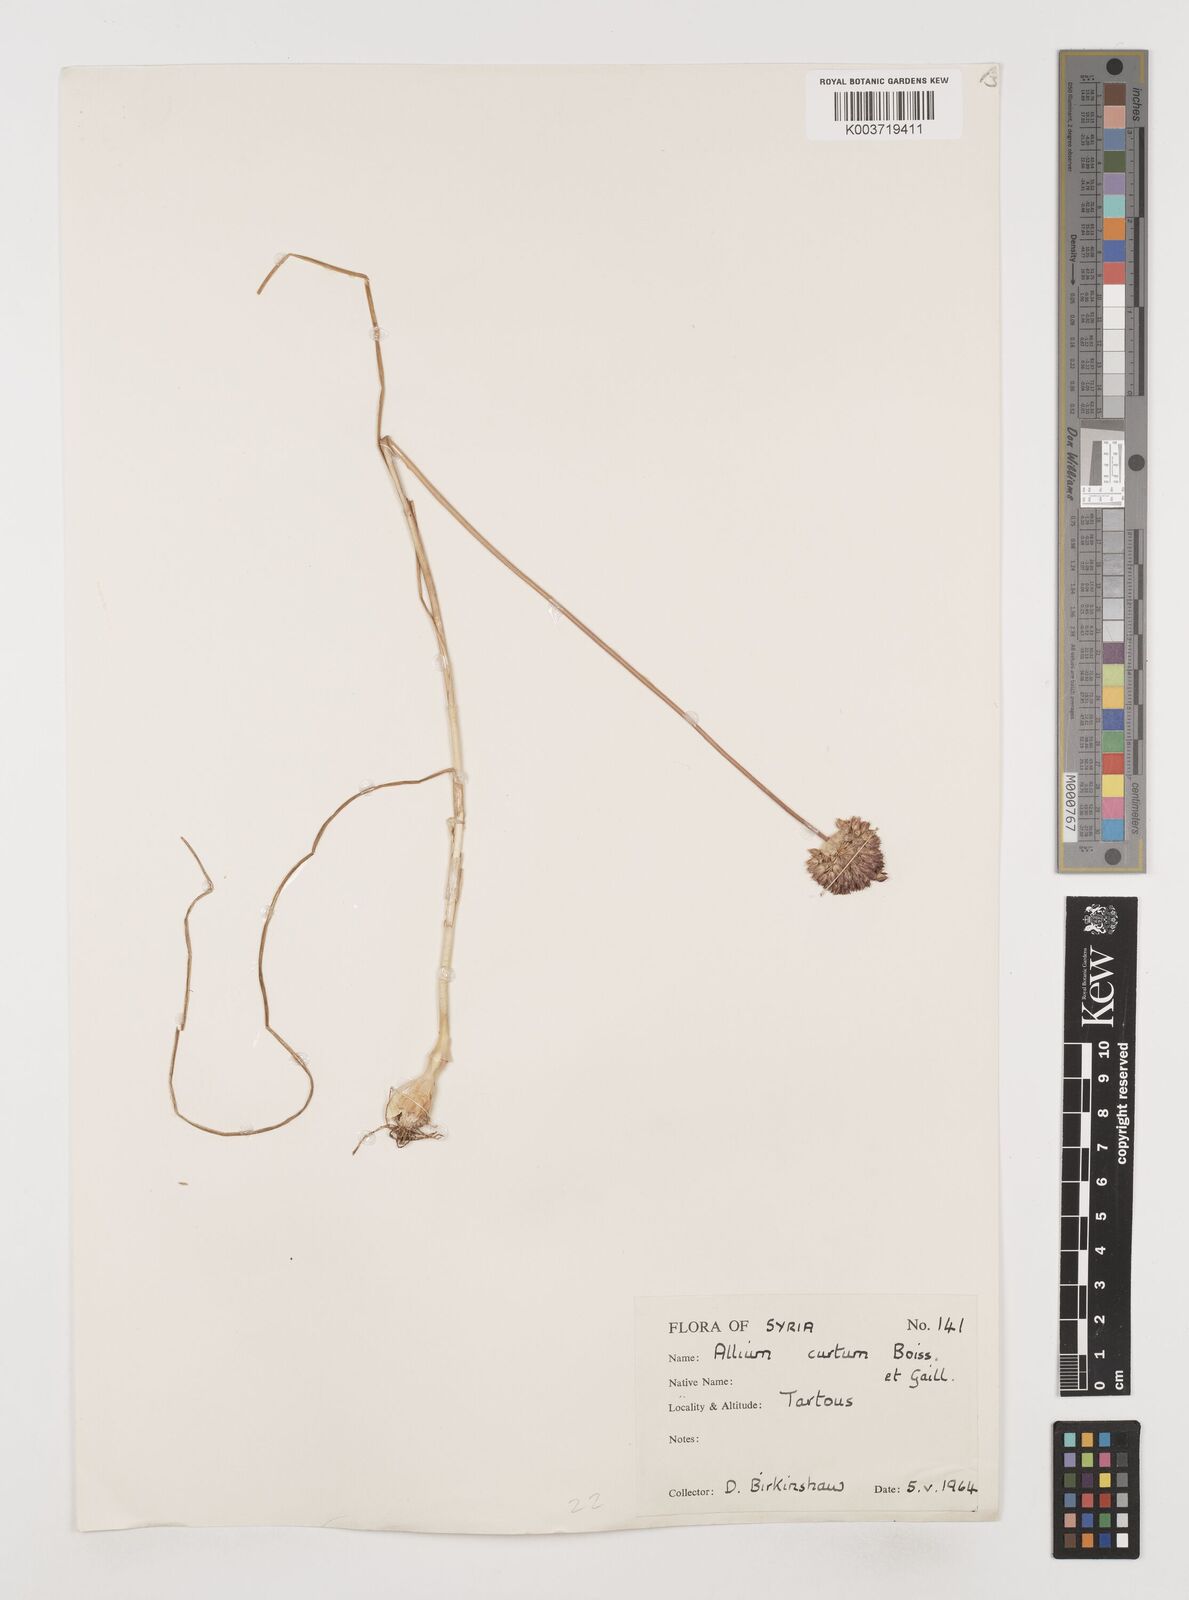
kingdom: Plantae
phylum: Tracheophyta
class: Liliopsida
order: Asparagales
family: Amaryllidaceae
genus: Allium
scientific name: Allium curtum
